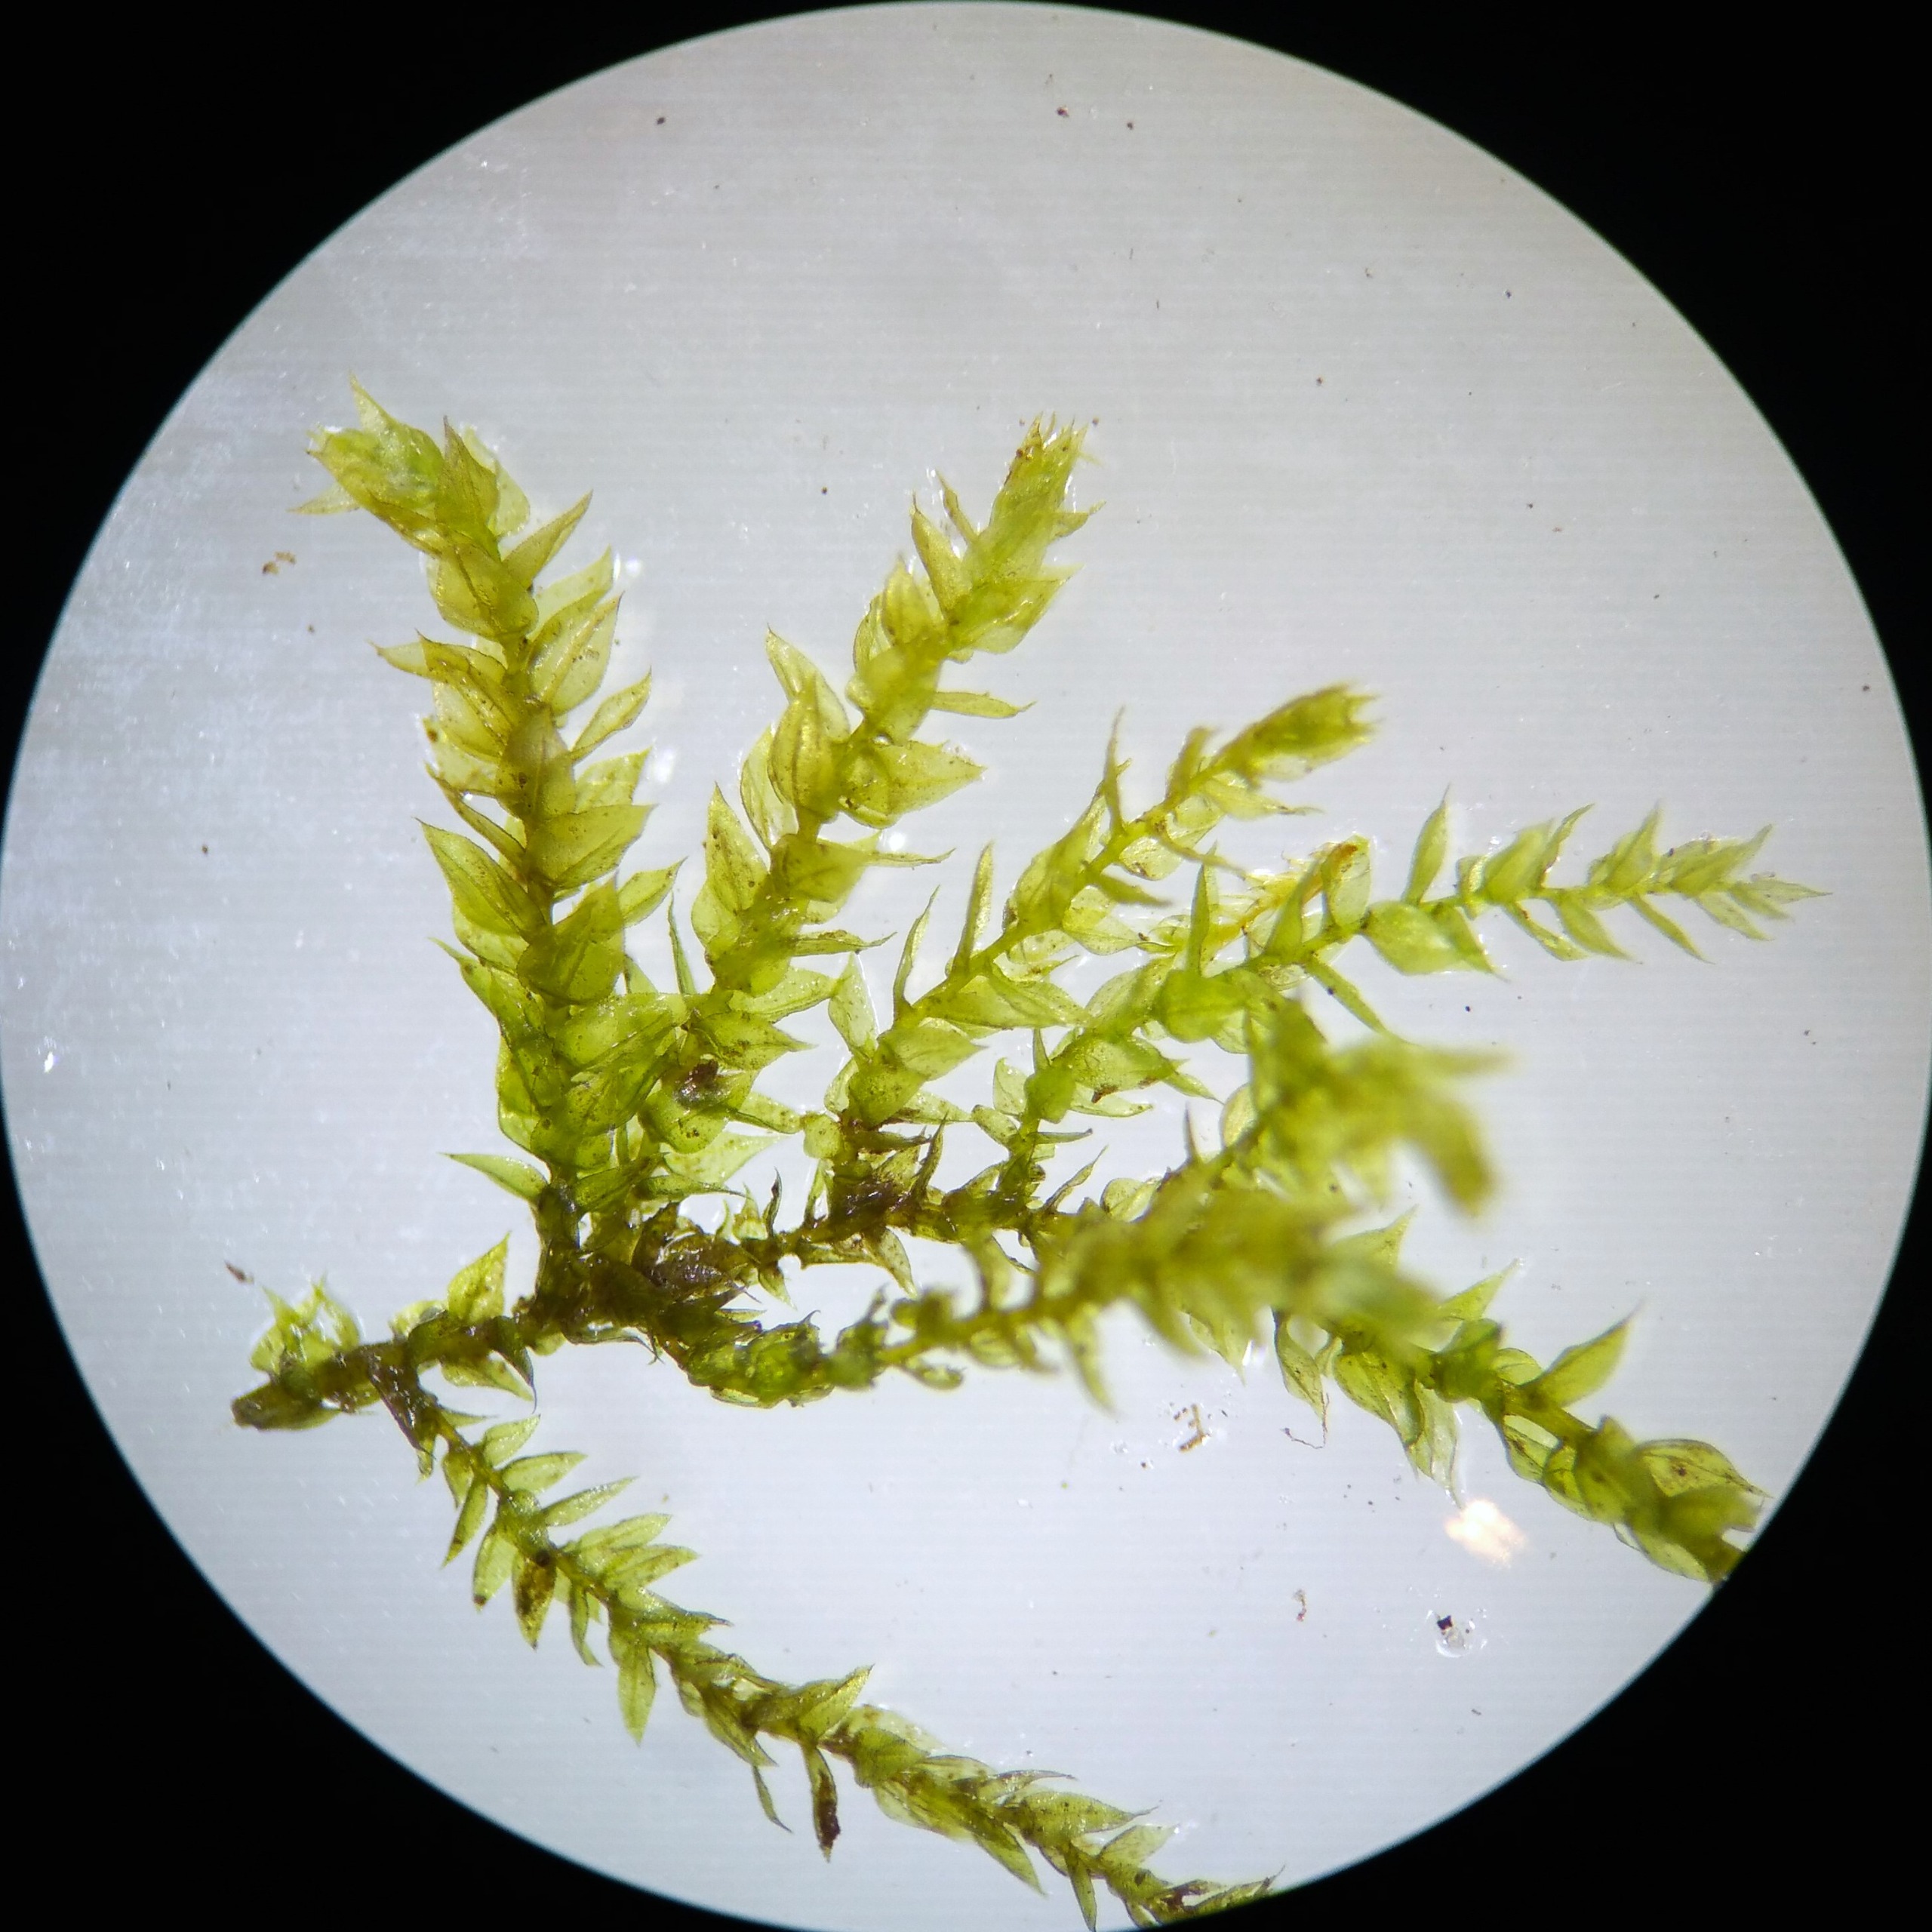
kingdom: Plantae
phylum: Bryophyta
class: Bryopsida
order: Hypnales
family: Brachytheciaceae
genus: Oxyrrhynchium
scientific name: Oxyrrhynchium hians
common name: Ler-vortetand
